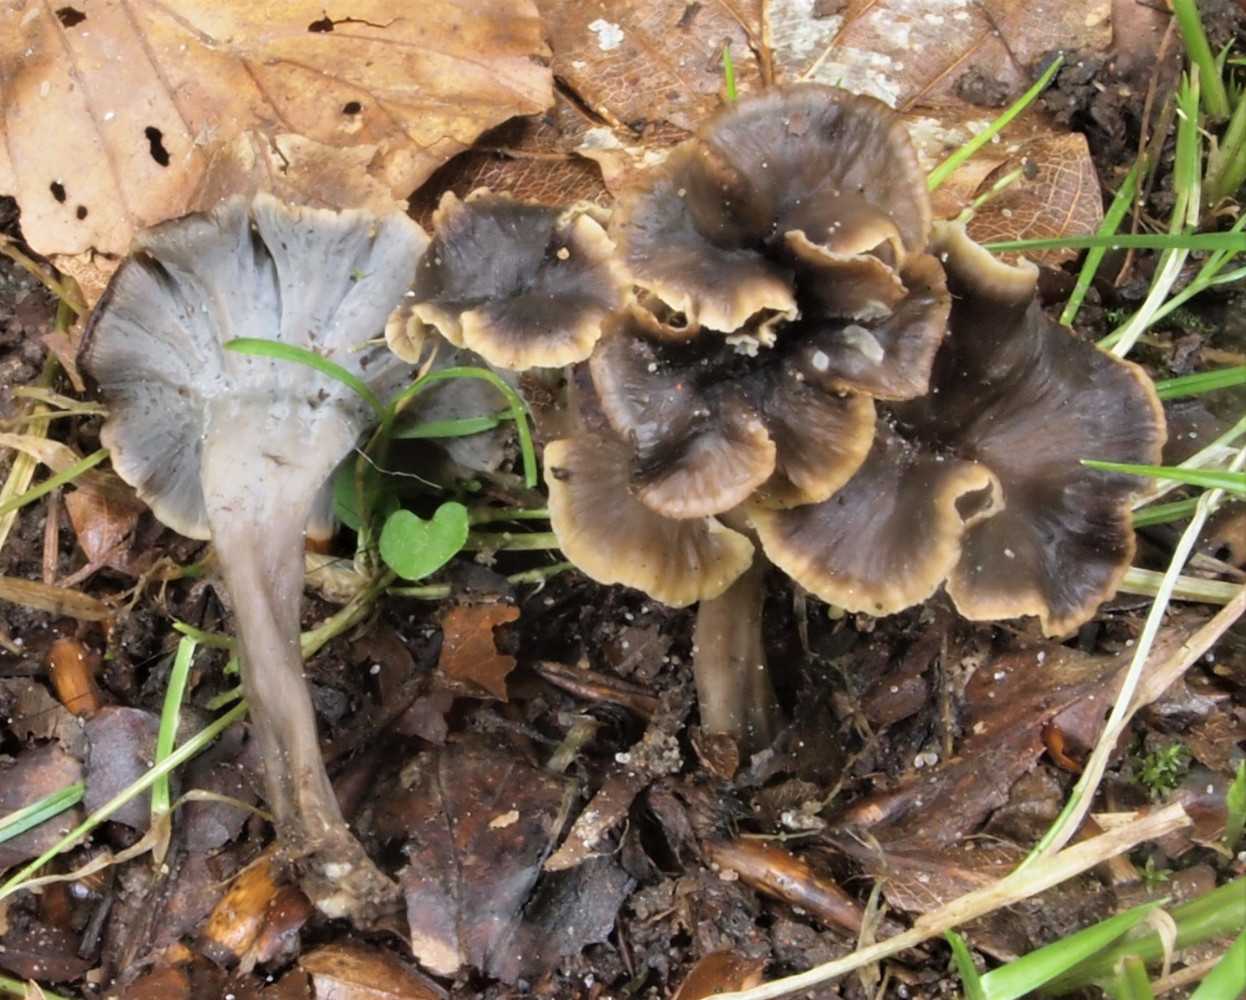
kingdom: Fungi
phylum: Basidiomycota
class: Agaricomycetes
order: Cantharellales
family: Hydnaceae
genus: Craterellus
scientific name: Craterellus undulatus
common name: liden kantarel
